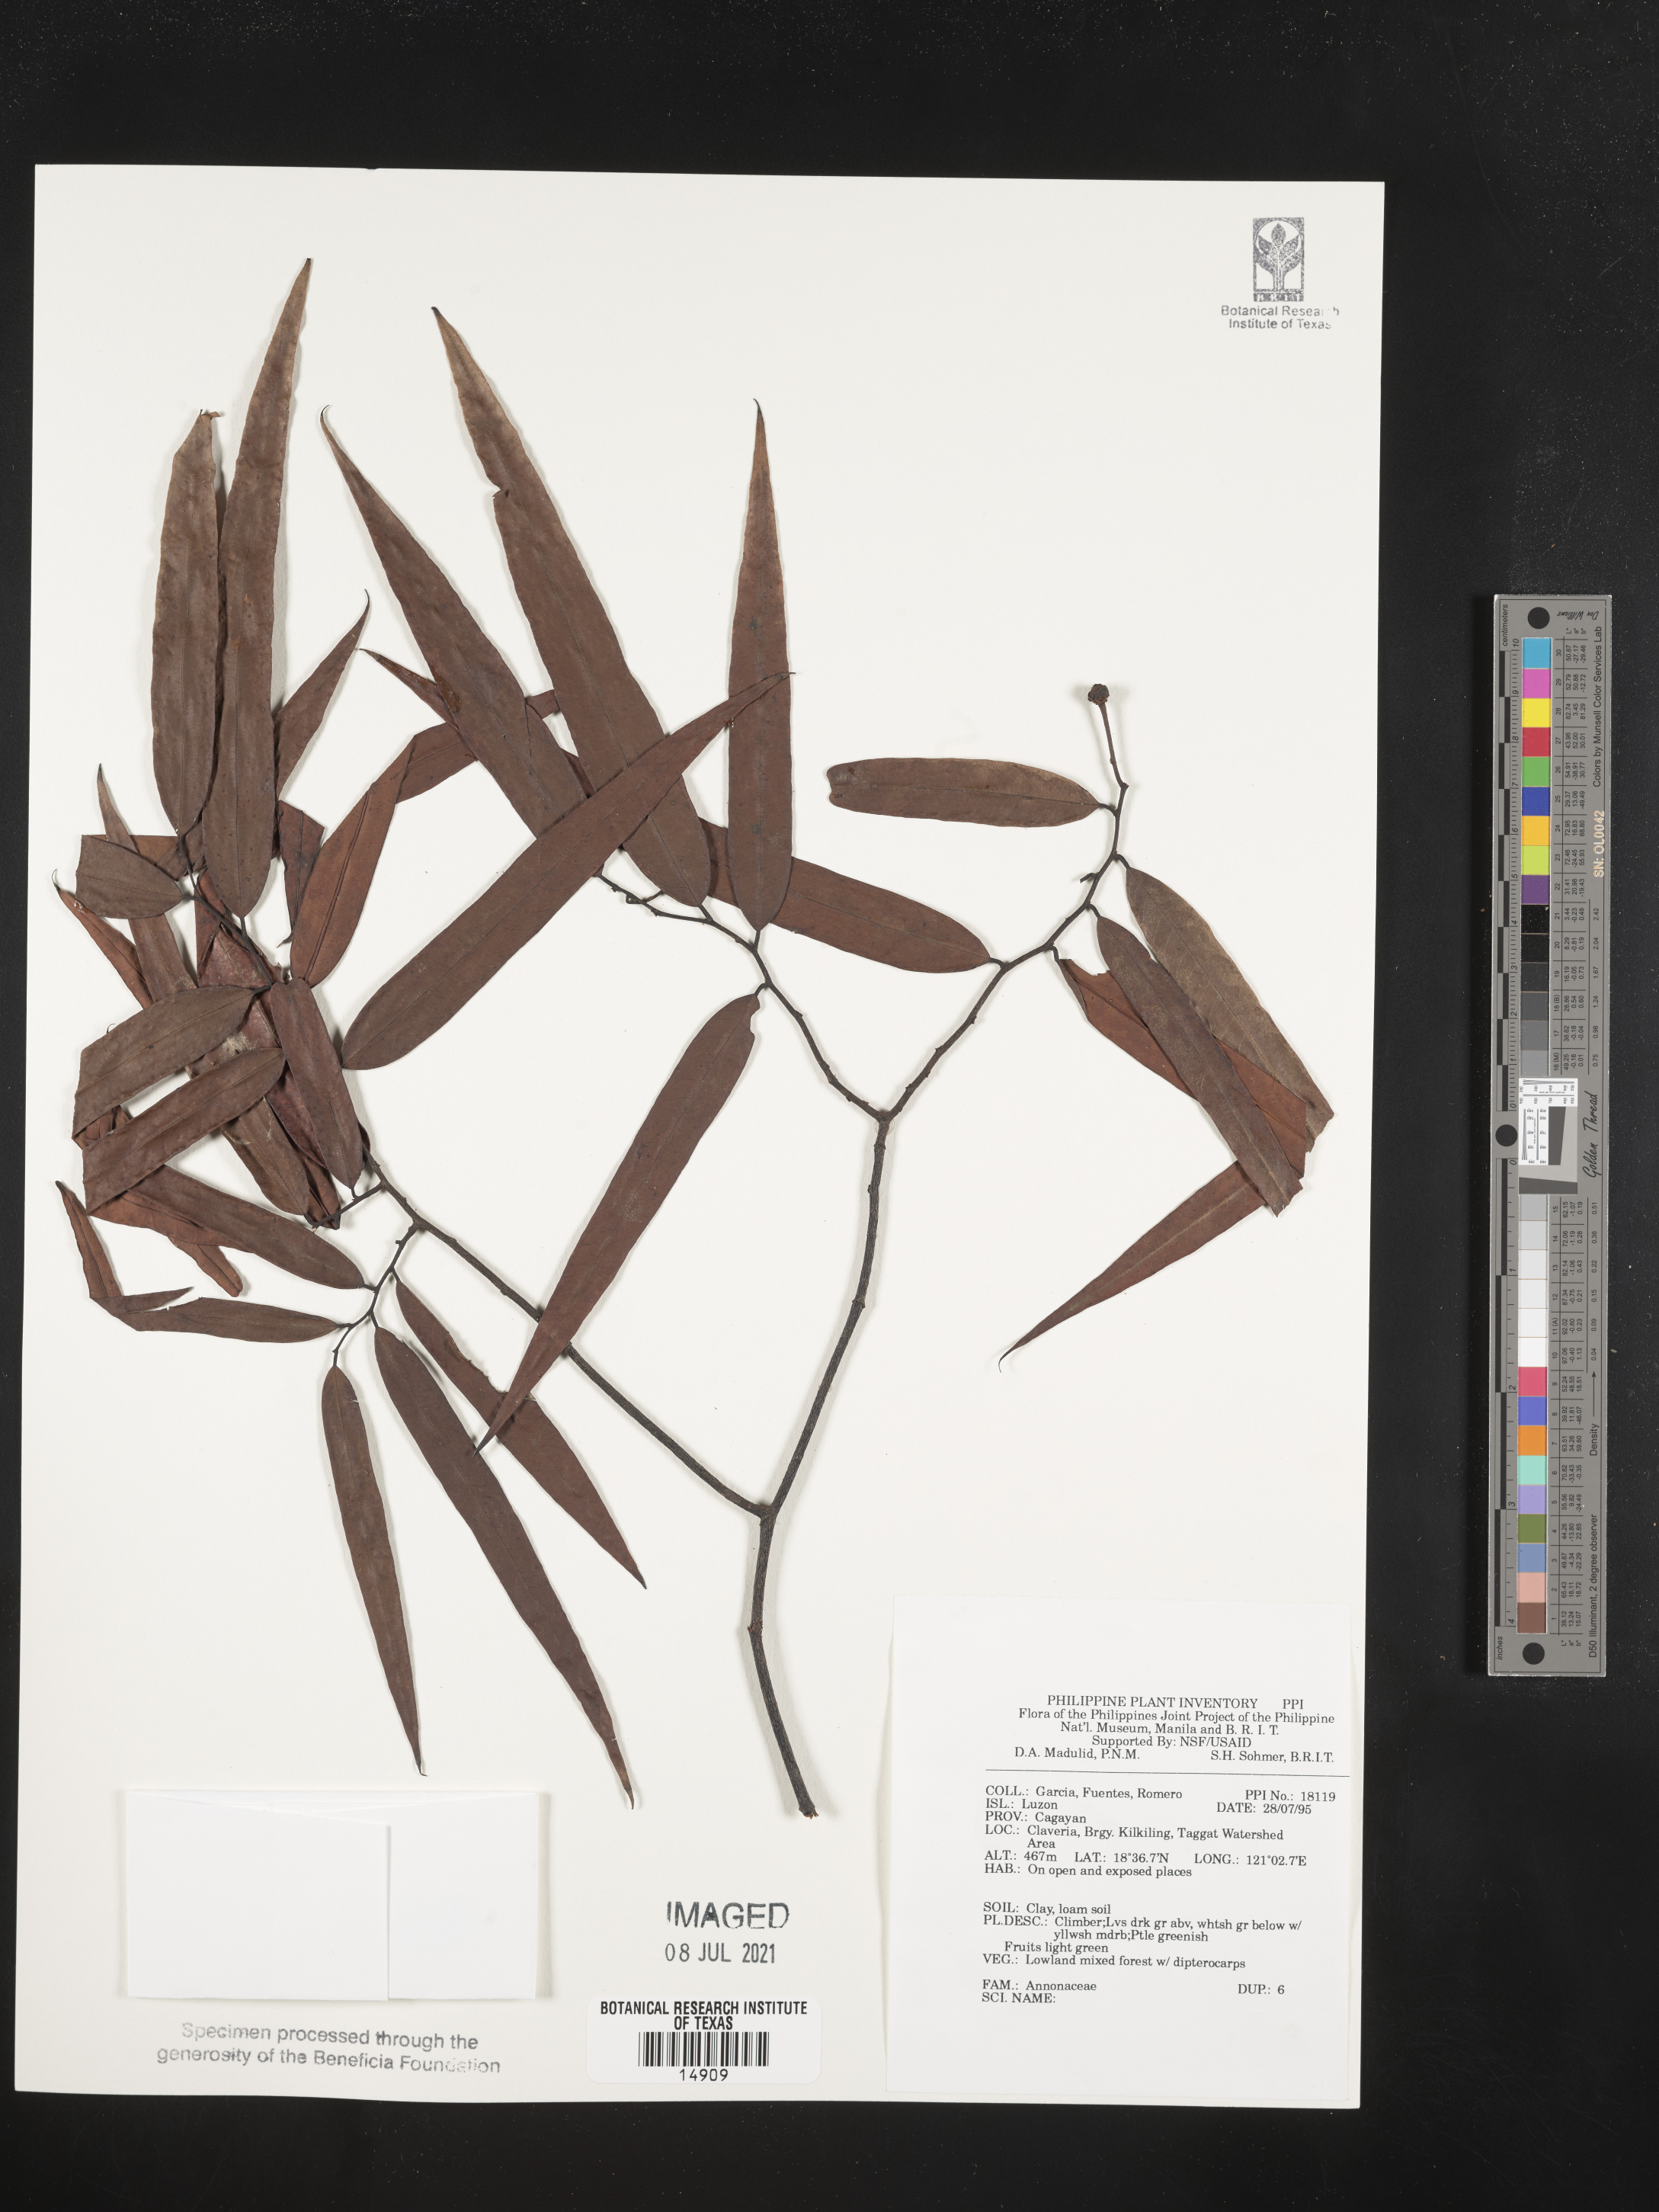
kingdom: Plantae
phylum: Tracheophyta
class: Magnoliopsida
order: Magnoliales
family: Annonaceae
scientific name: Annonaceae
